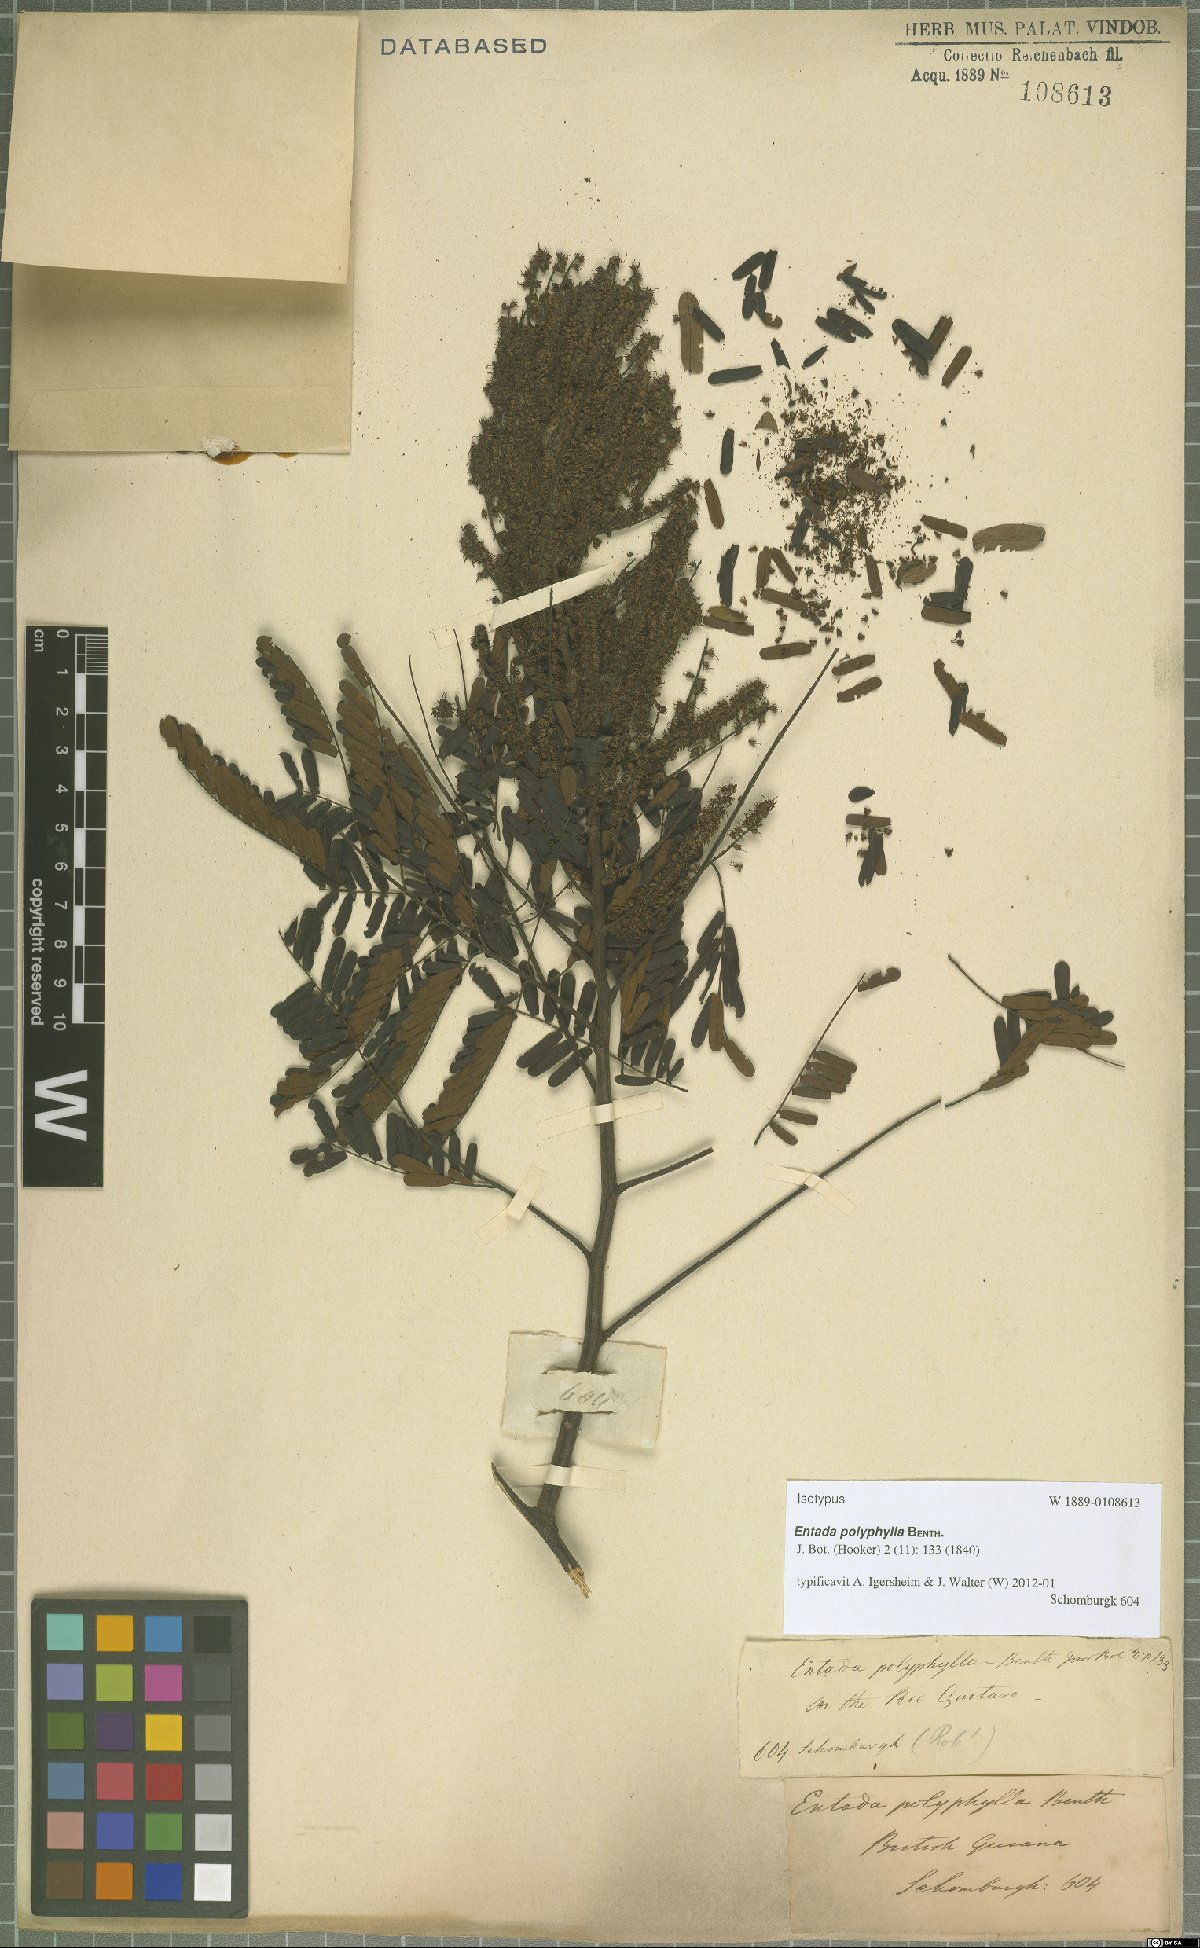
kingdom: Plantae
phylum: Tracheophyta
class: Magnoliopsida
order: Fabales
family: Fabaceae
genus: Entada
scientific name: Entada polyphylla
